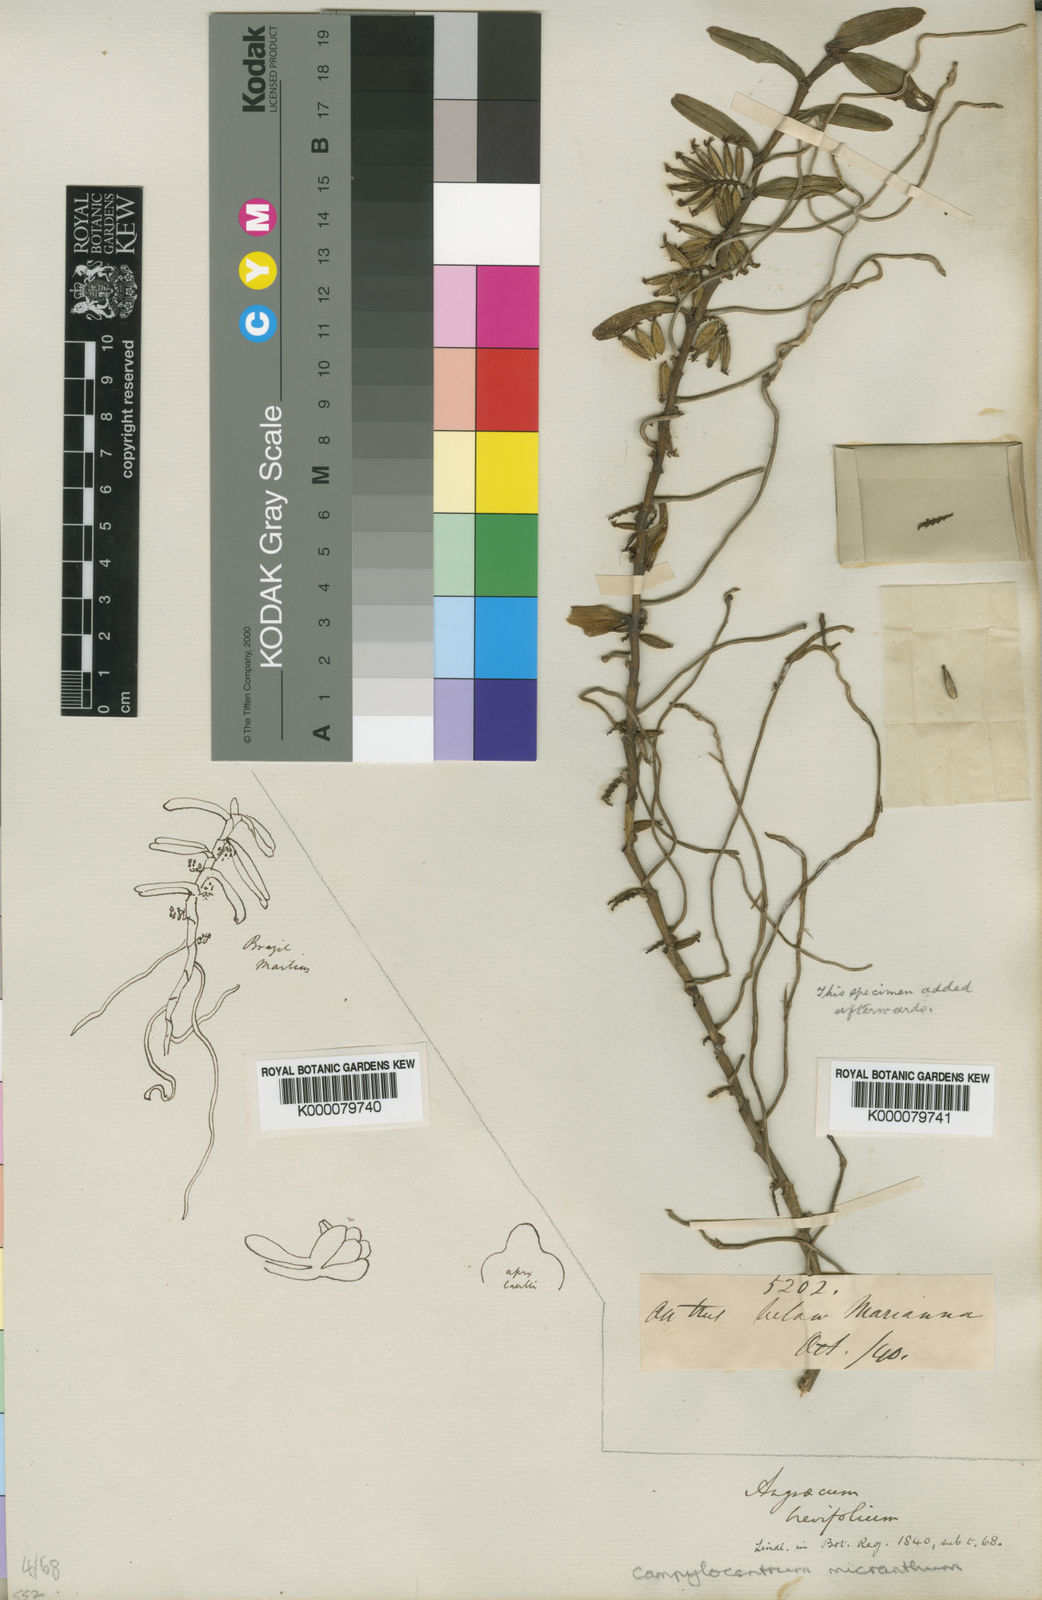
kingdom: Plantae
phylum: Tracheophyta
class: Liliopsida
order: Asparagales
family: Orchidaceae
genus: Campylocentrum
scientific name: Campylocentrum micranthum
